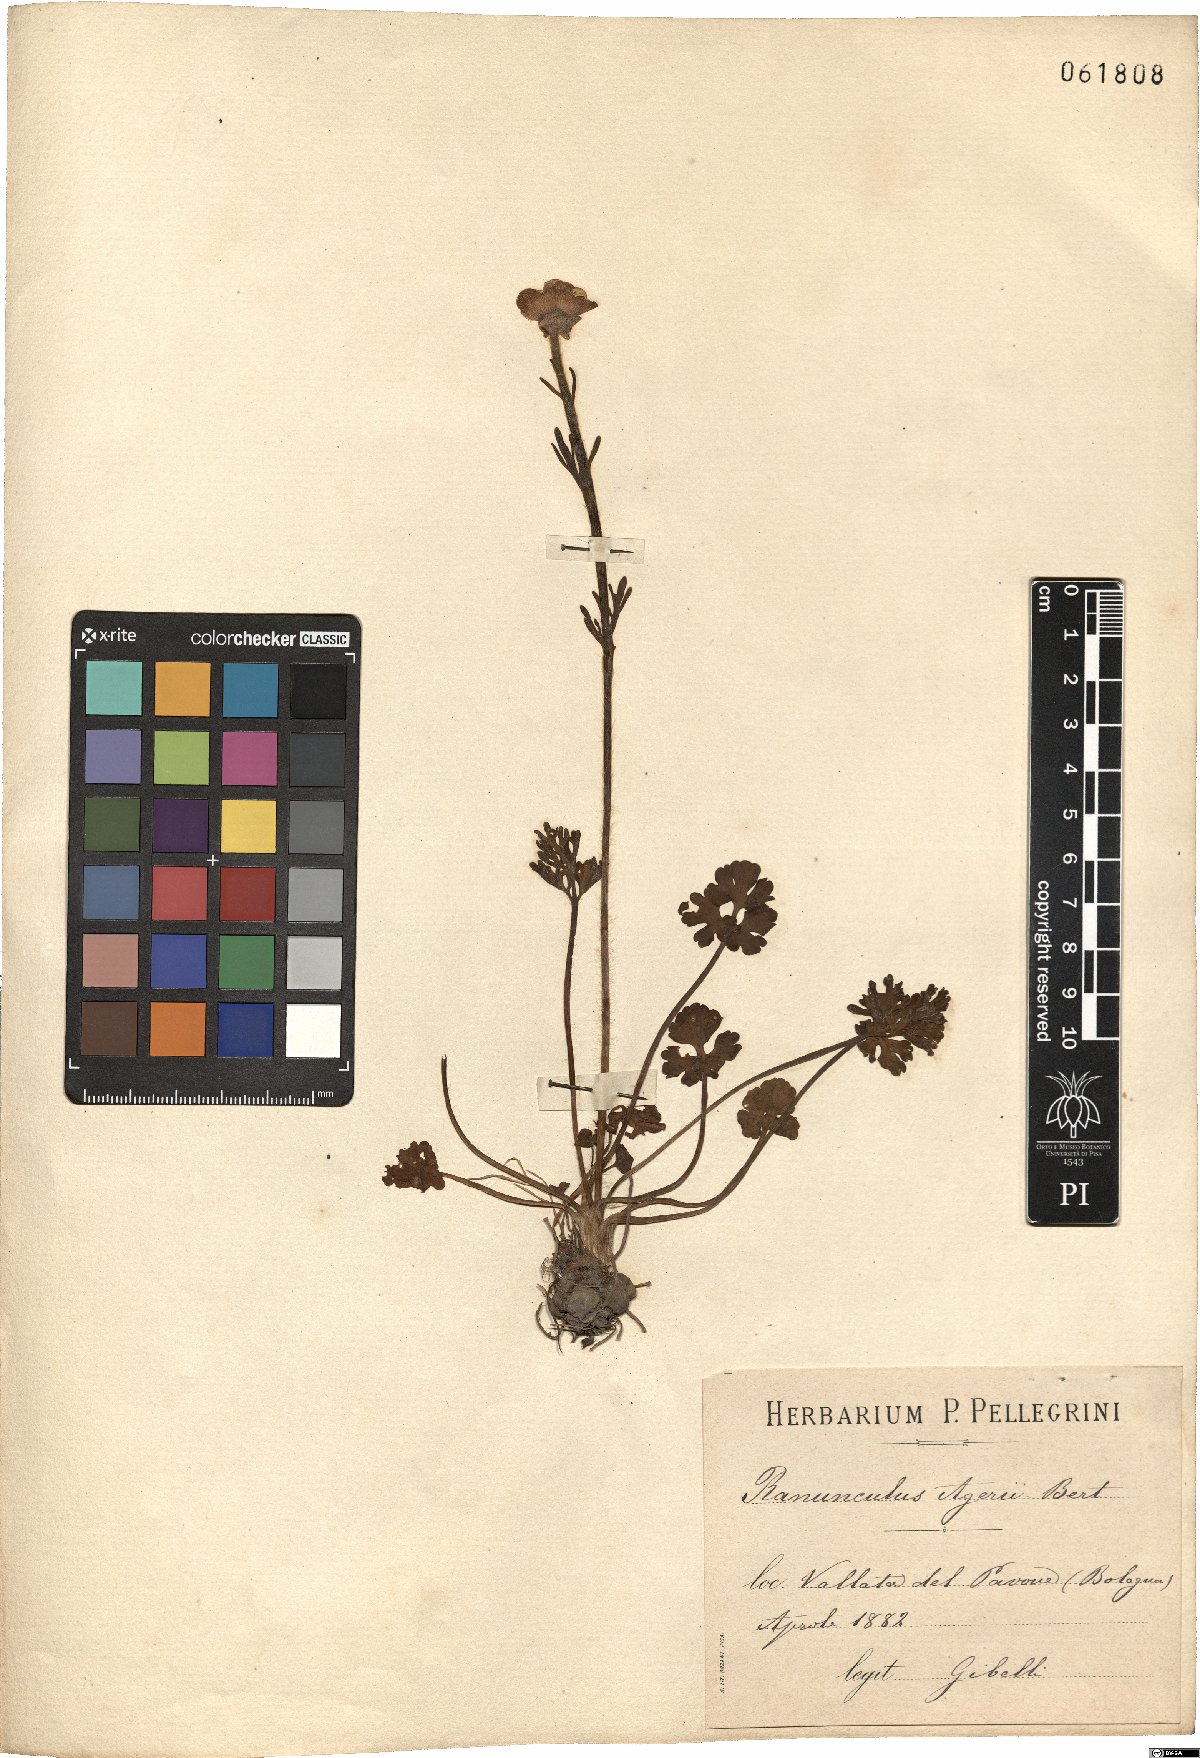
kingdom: Plantae
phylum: Tracheophyta
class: Magnoliopsida
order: Ranunculales
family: Ranunculaceae
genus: Ranunculus
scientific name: Ranunculus gracilis
